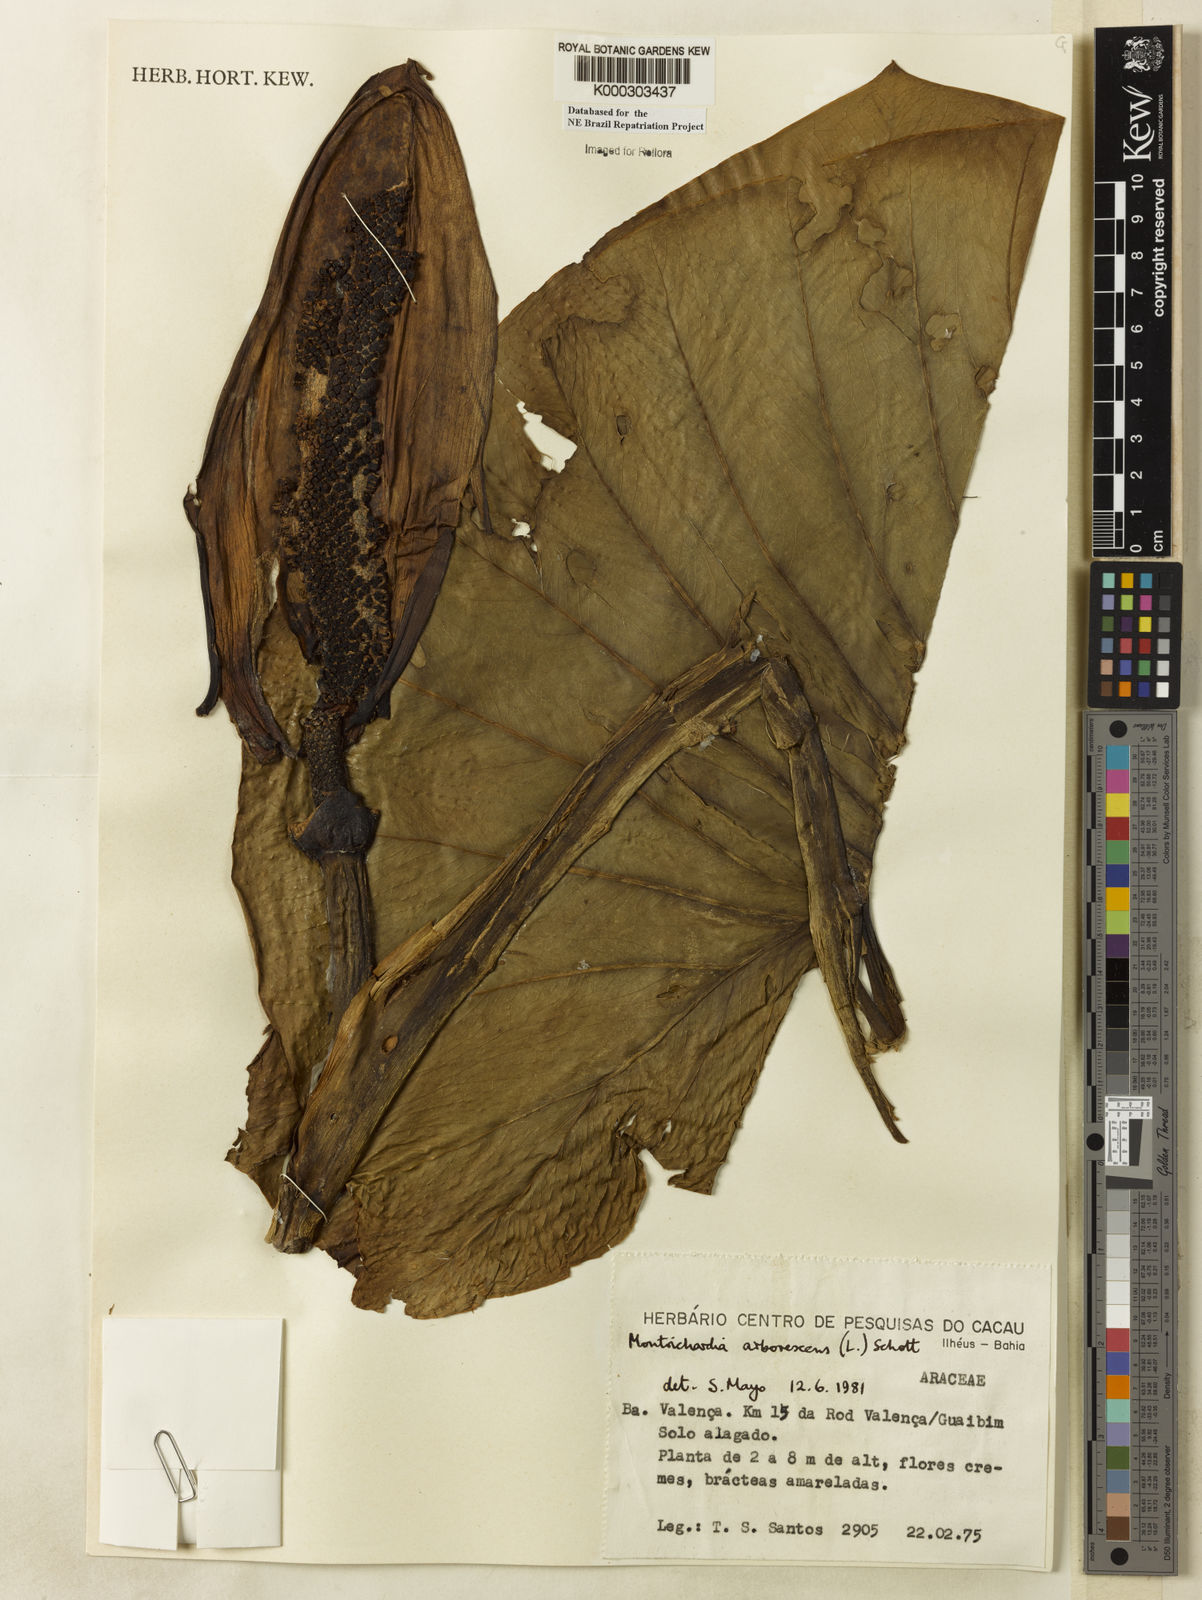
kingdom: Plantae
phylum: Tracheophyta
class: Liliopsida
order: Alismatales
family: Araceae
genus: Montrichardia
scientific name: Montrichardia linifera
